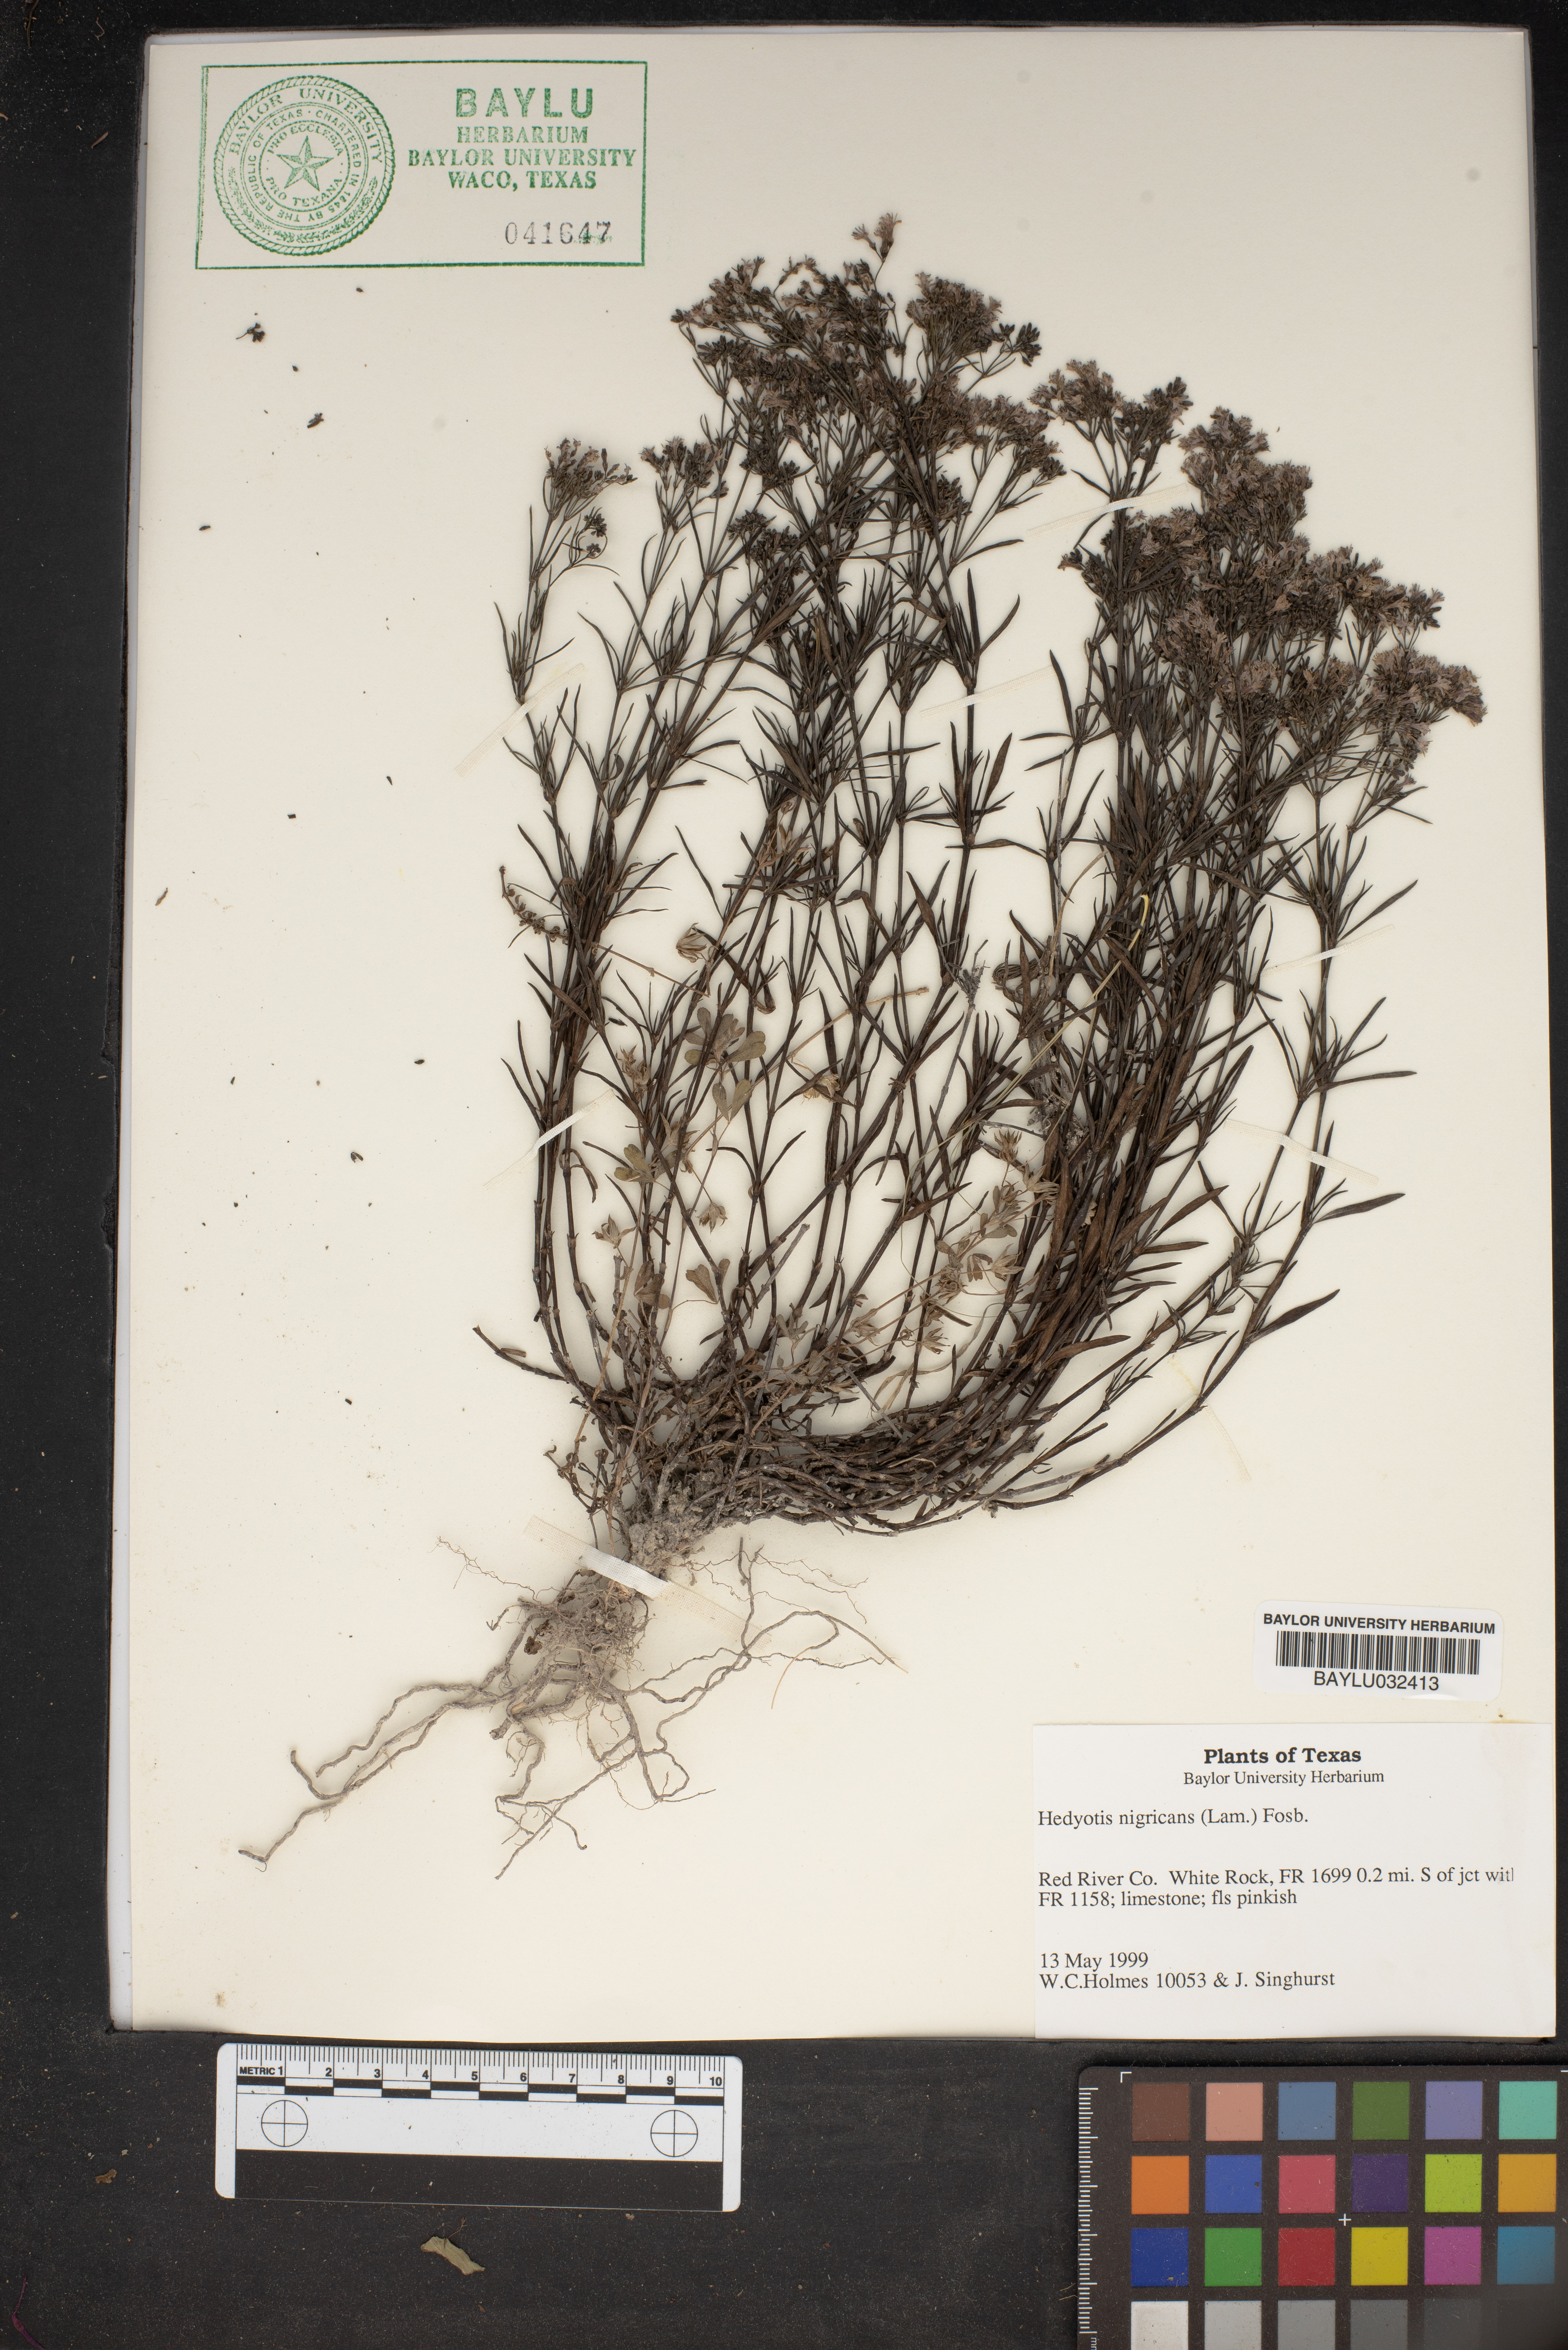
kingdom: Plantae
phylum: Tracheophyta
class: Magnoliopsida
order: Gentianales
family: Rubiaceae
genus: Stenaria
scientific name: Stenaria nigricans
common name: Diamondflowers
